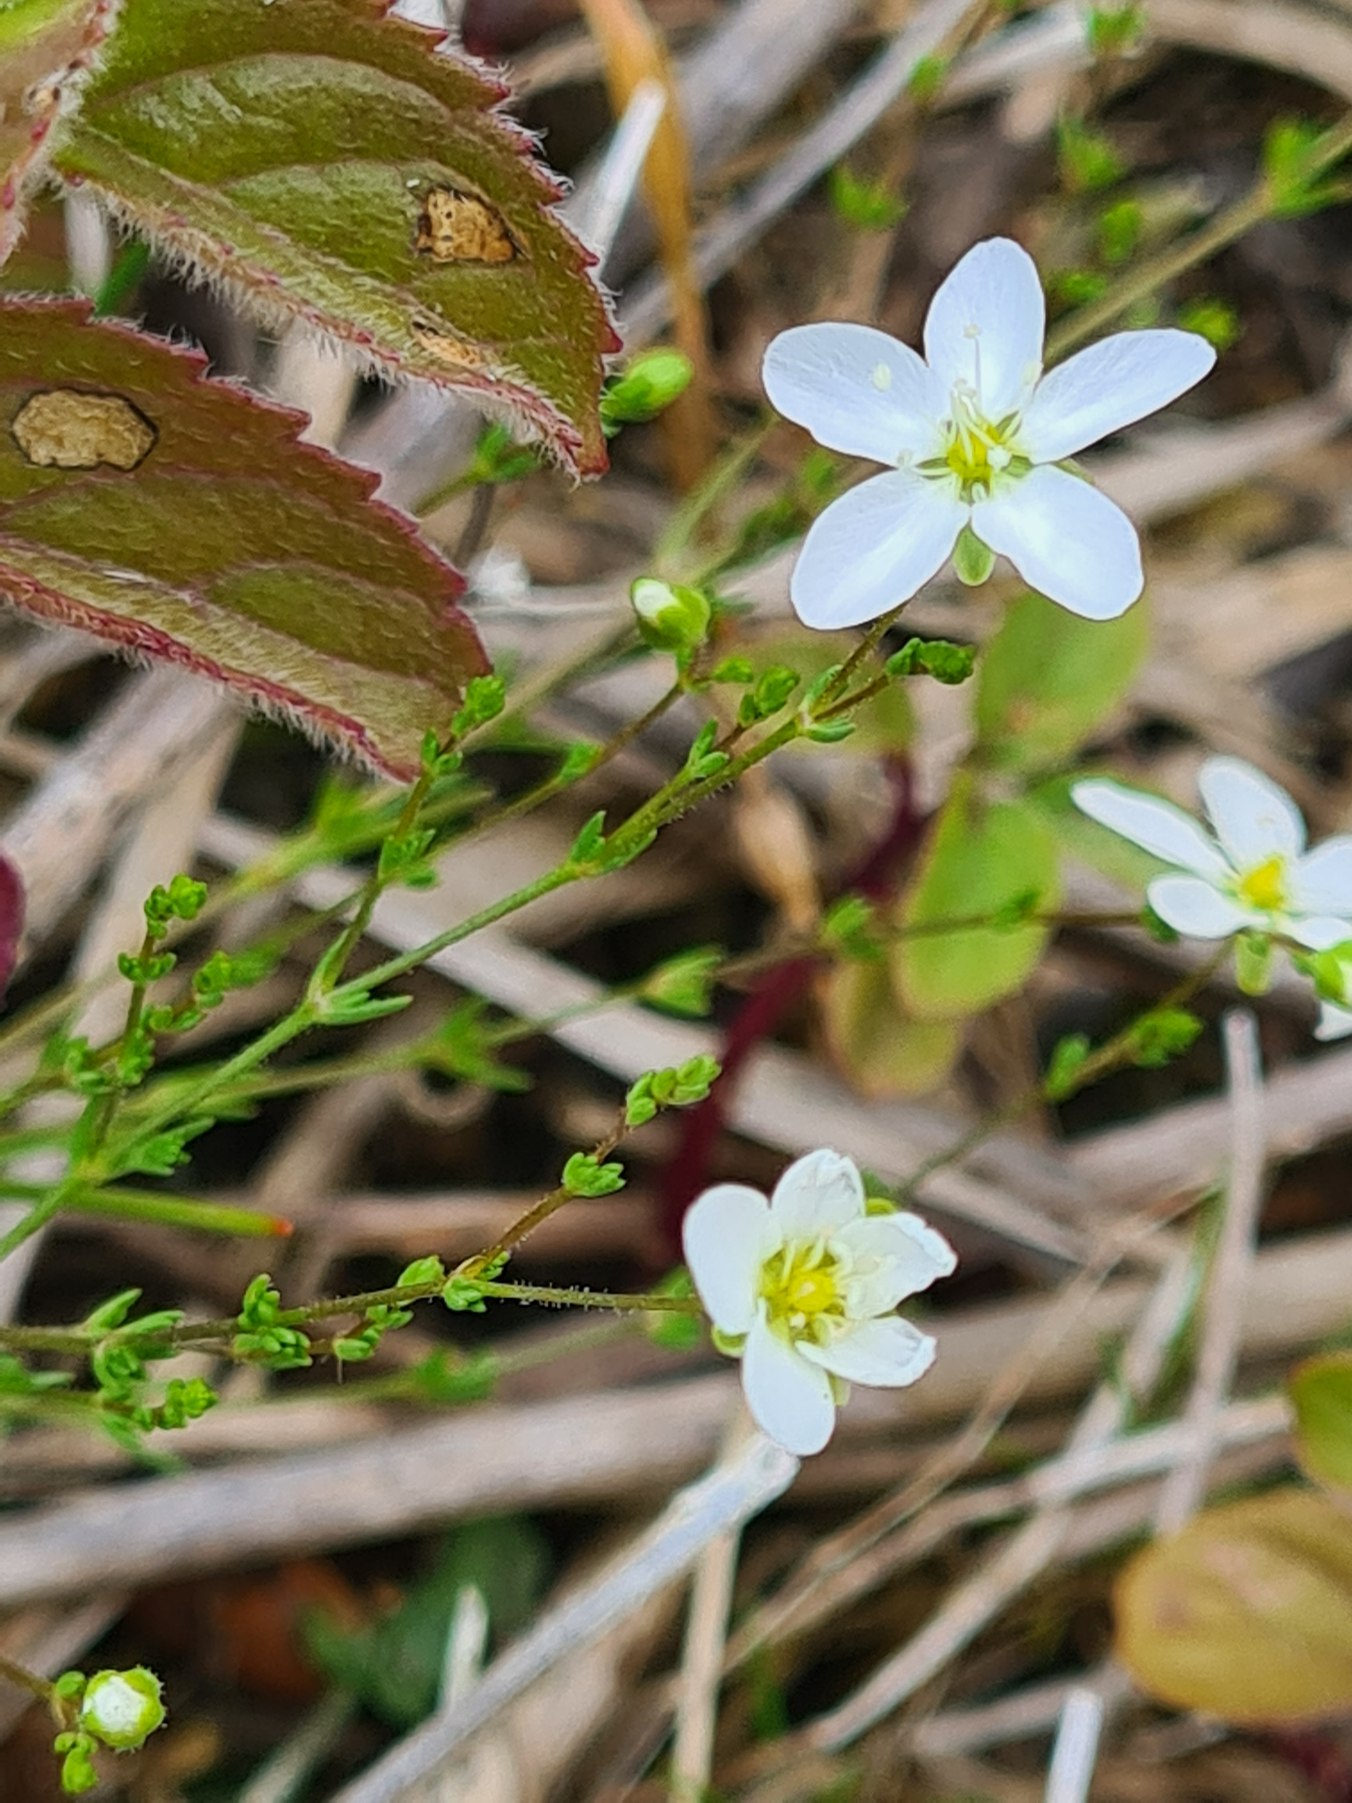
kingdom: Plantae
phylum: Tracheophyta
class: Magnoliopsida
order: Caryophyllales
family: Caryophyllaceae
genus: Sagina
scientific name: Sagina nodosa
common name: Sydlig knude-firling
